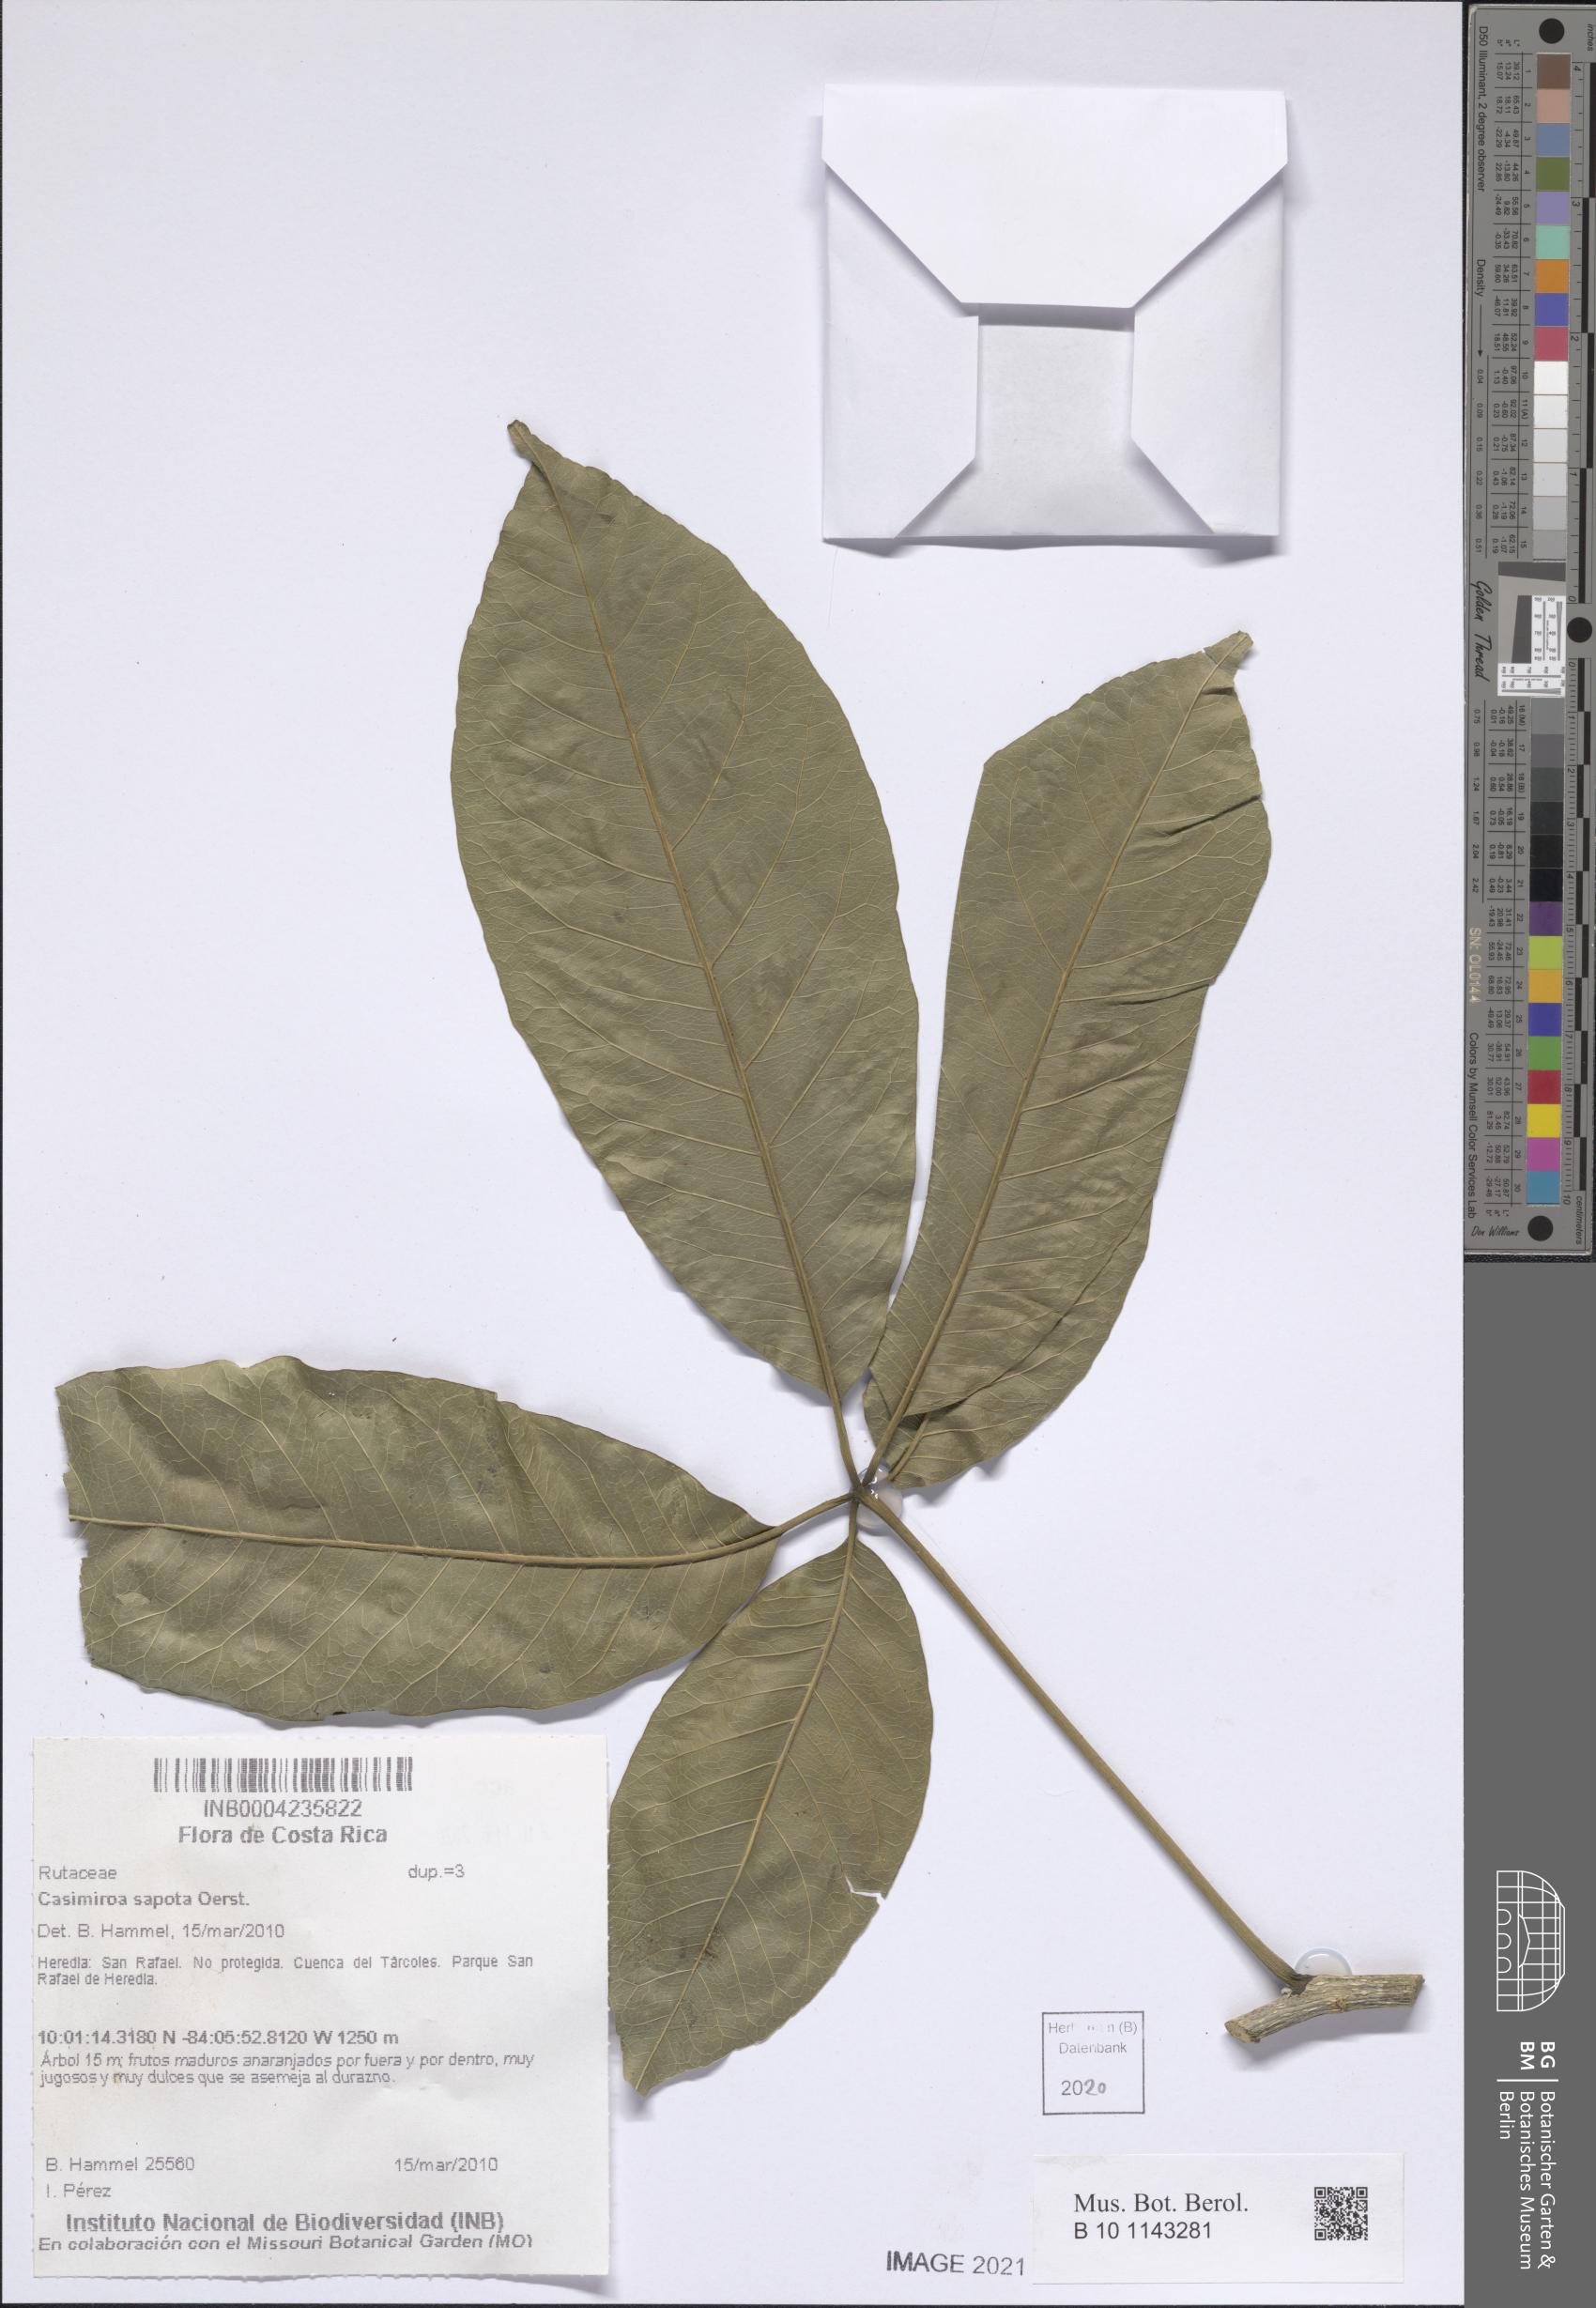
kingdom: Plantae
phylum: Tracheophyta
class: Magnoliopsida
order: Sapindales
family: Rutaceae
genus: Casimiroa
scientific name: Casimiroa sapota
